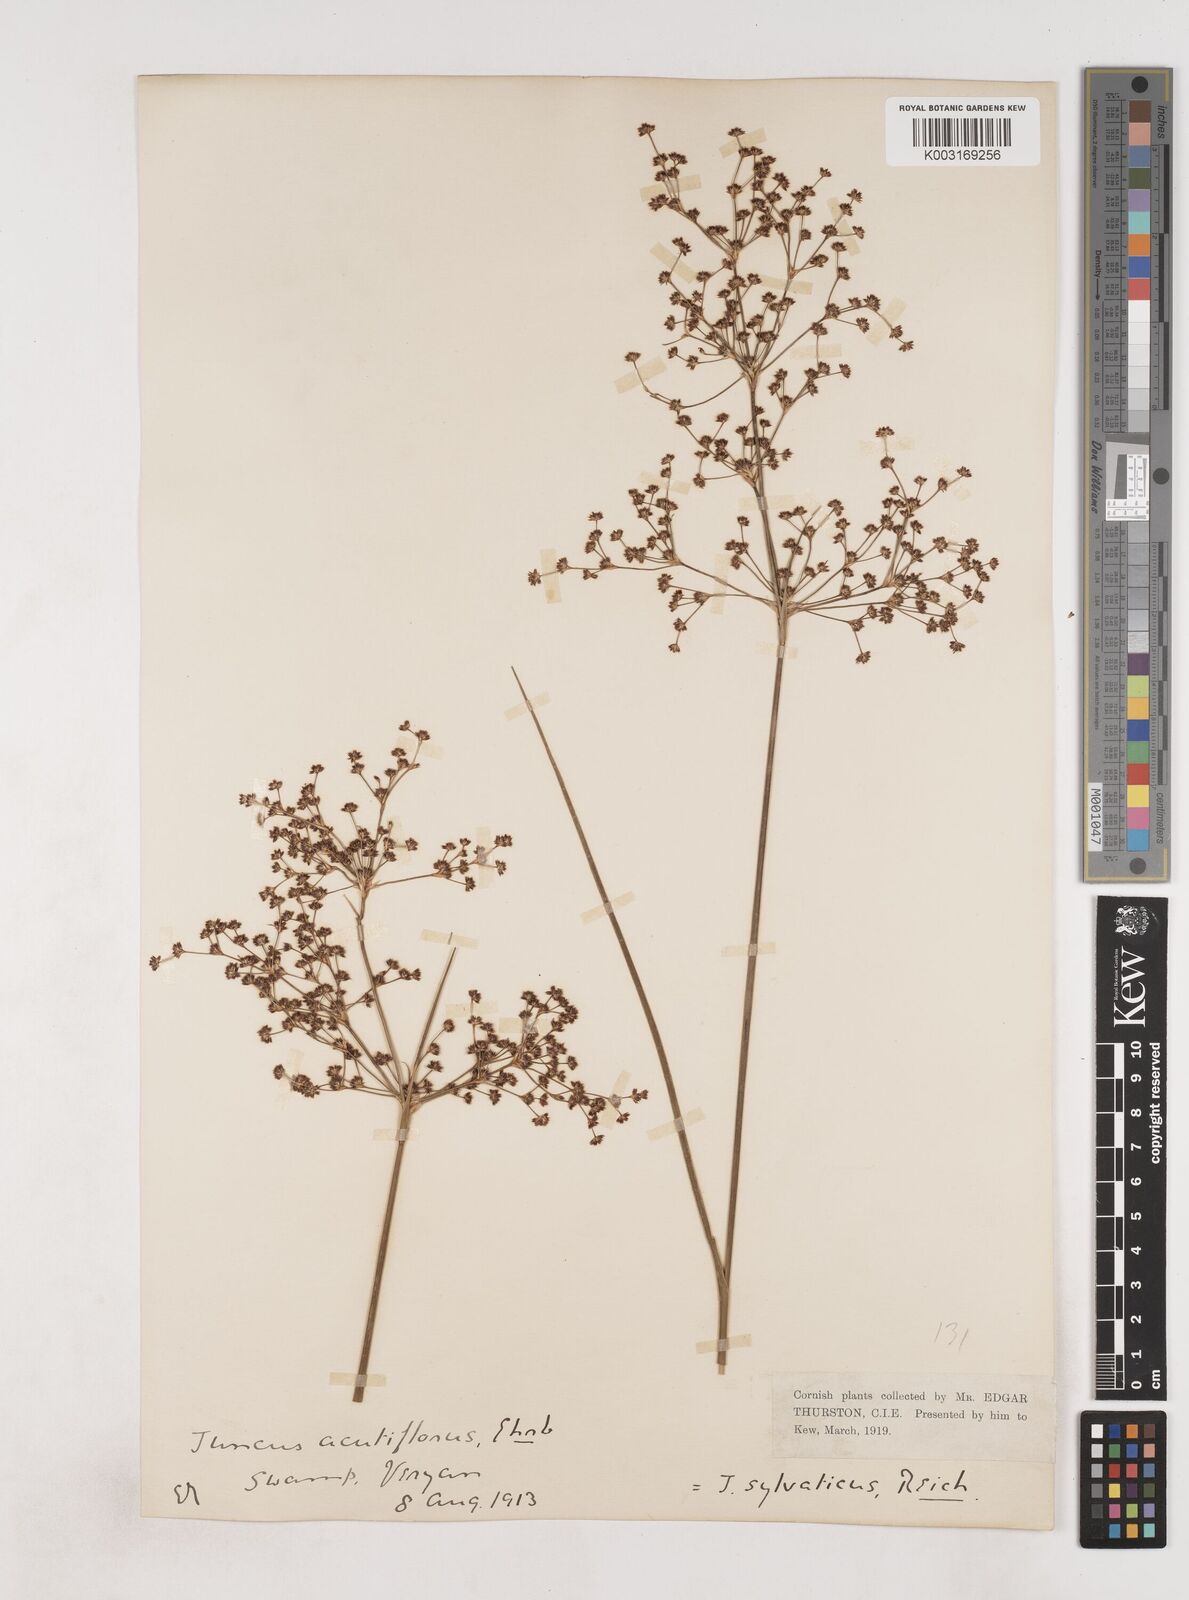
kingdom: Plantae
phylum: Tracheophyta
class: Liliopsida
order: Poales
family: Juncaceae
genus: Juncus
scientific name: Juncus acutiflorus
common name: Sharp-flowered rush
